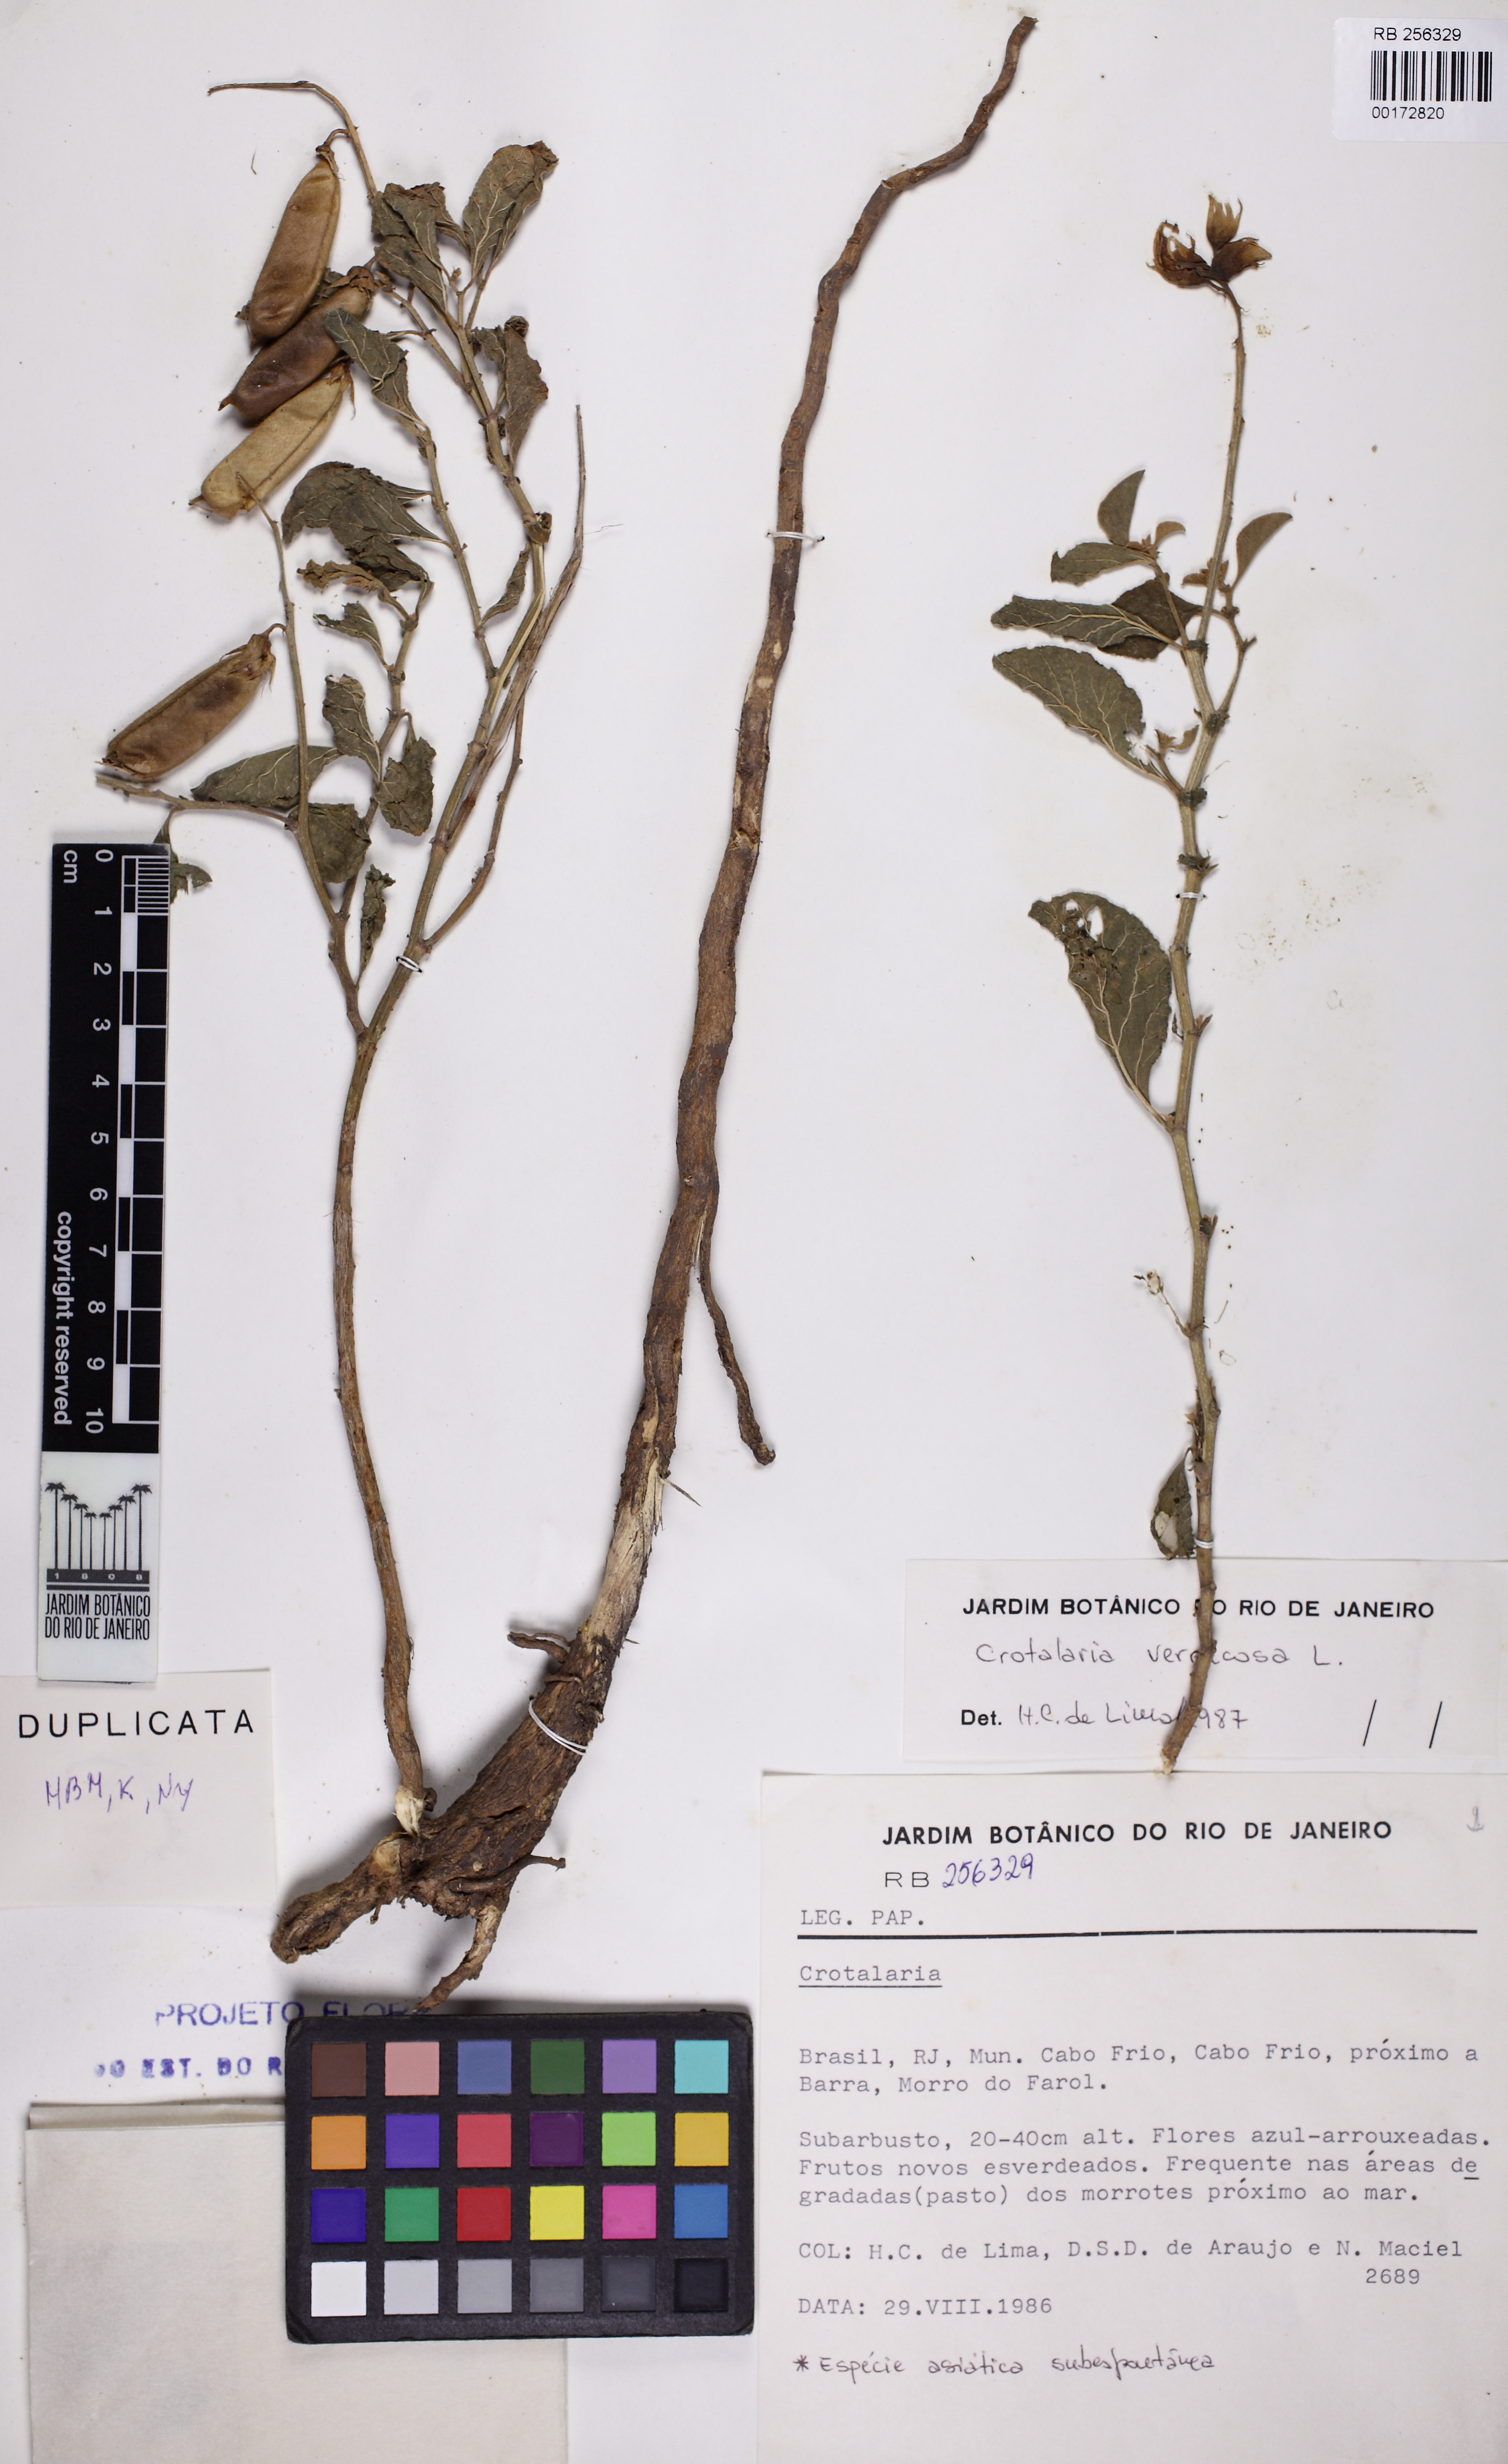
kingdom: Plantae
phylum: Tracheophyta
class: Magnoliopsida
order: Fabales
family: Fabaceae
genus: Crotalaria
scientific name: Crotalaria verrucosa
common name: Blue rattlesnake
